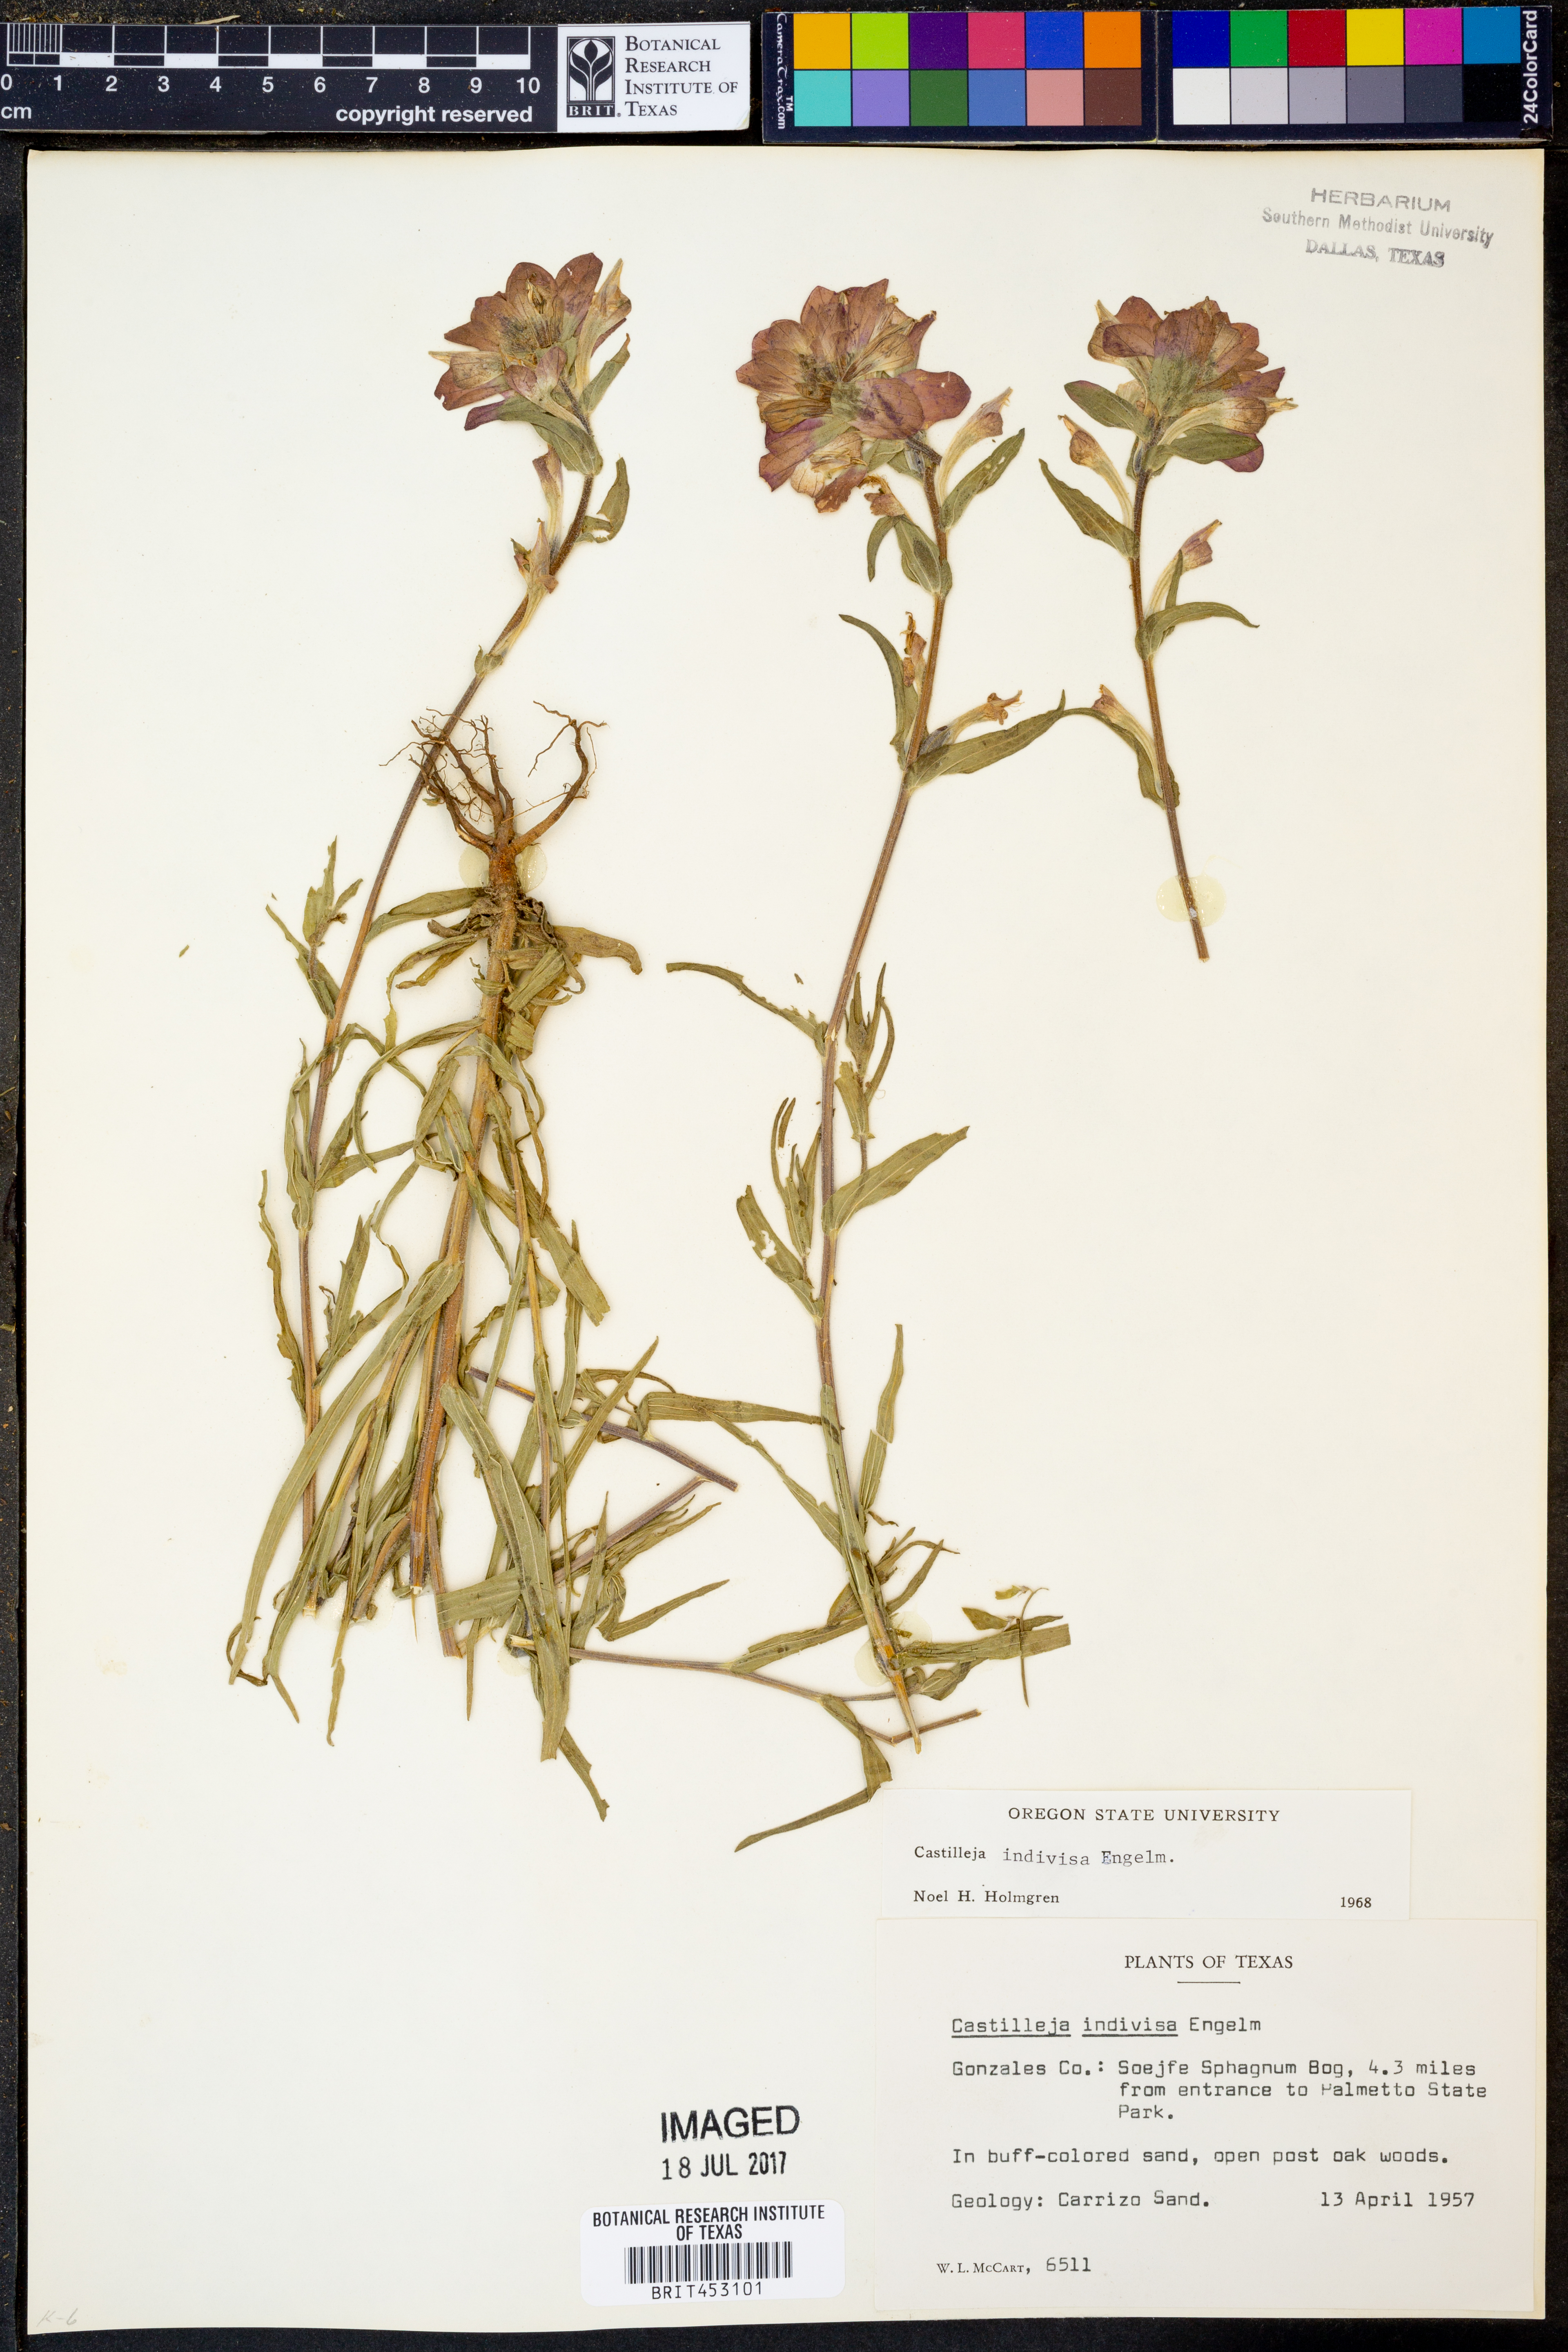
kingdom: Plantae
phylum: Tracheophyta
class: Magnoliopsida
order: Lamiales
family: Orobanchaceae
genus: Castilleja
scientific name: Castilleja indivisa
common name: Texas paintbrush
